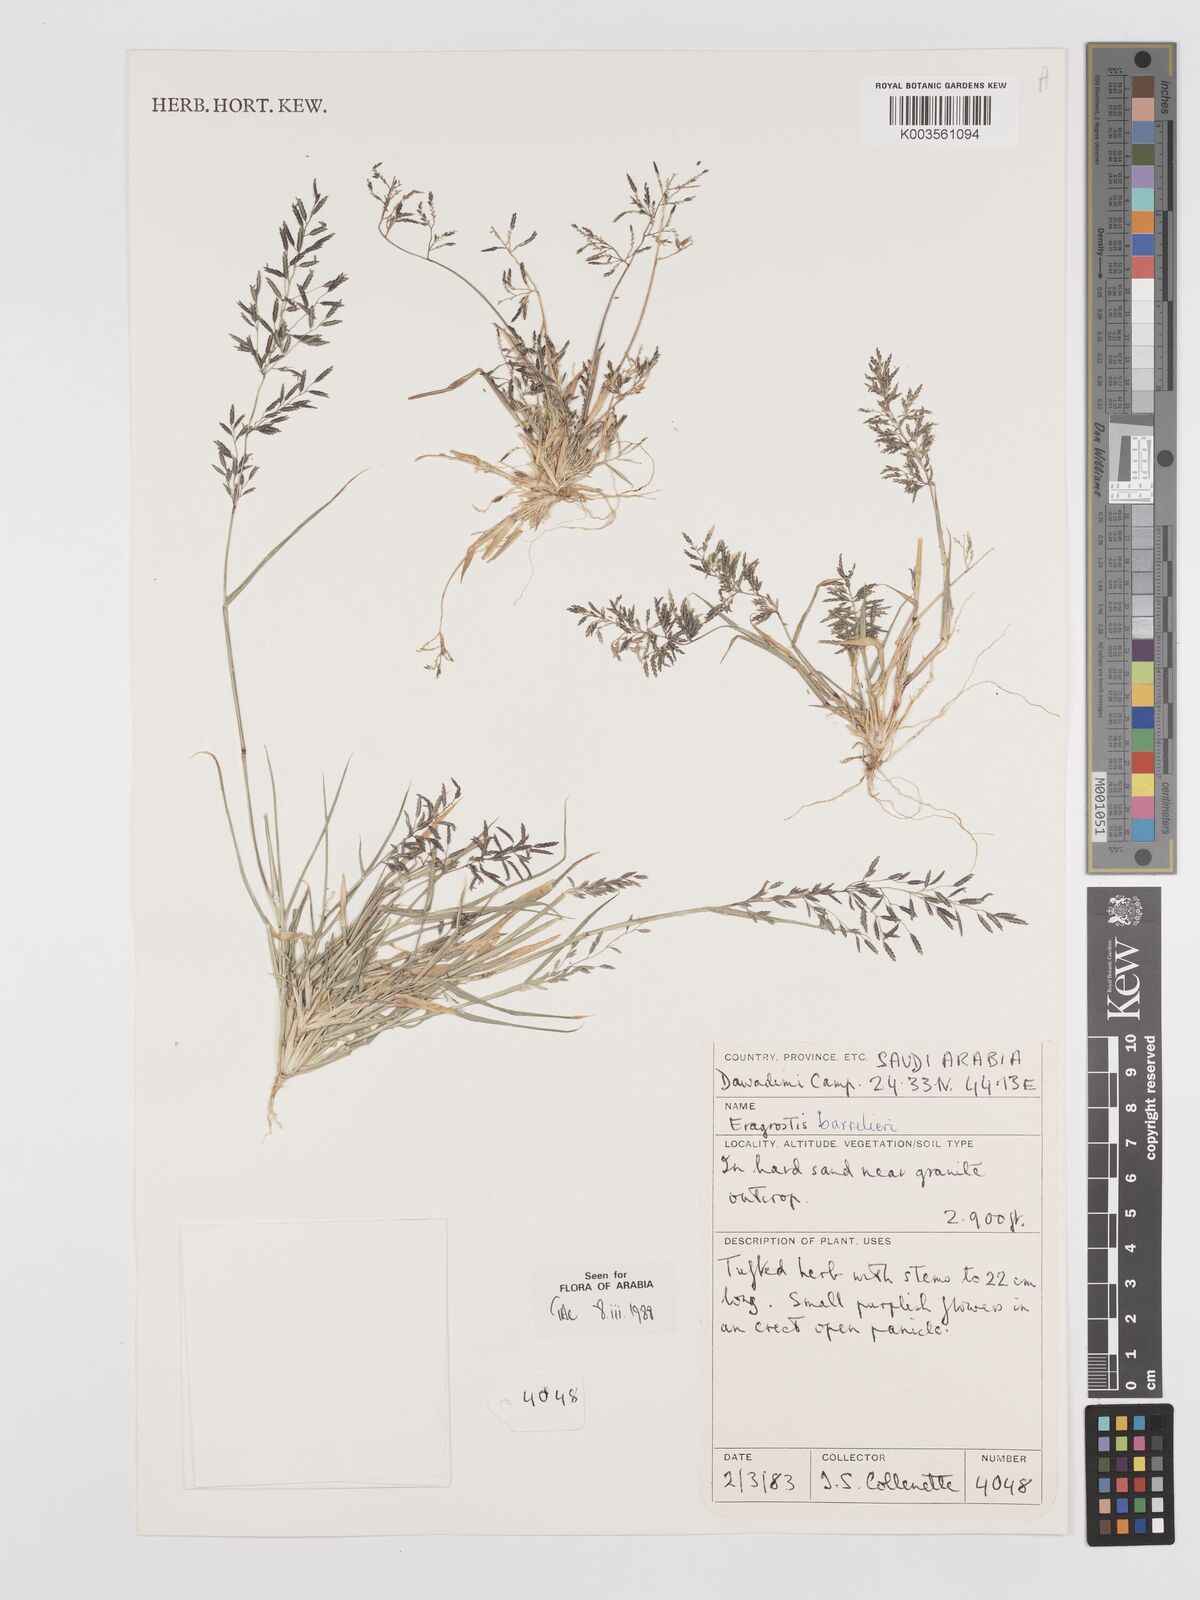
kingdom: Plantae
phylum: Tracheophyta
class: Liliopsida
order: Poales
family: Poaceae
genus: Eragrostis
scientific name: Eragrostis barrelieri
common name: Mediterranean lovegrass
